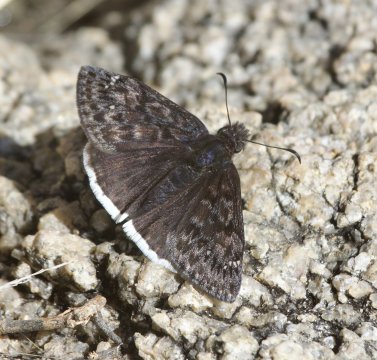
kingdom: Animalia
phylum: Arthropoda
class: Insecta
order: Lepidoptera
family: Hesperiidae
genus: Erynnis
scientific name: Erynnis tristis
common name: Mournful Duskywing
